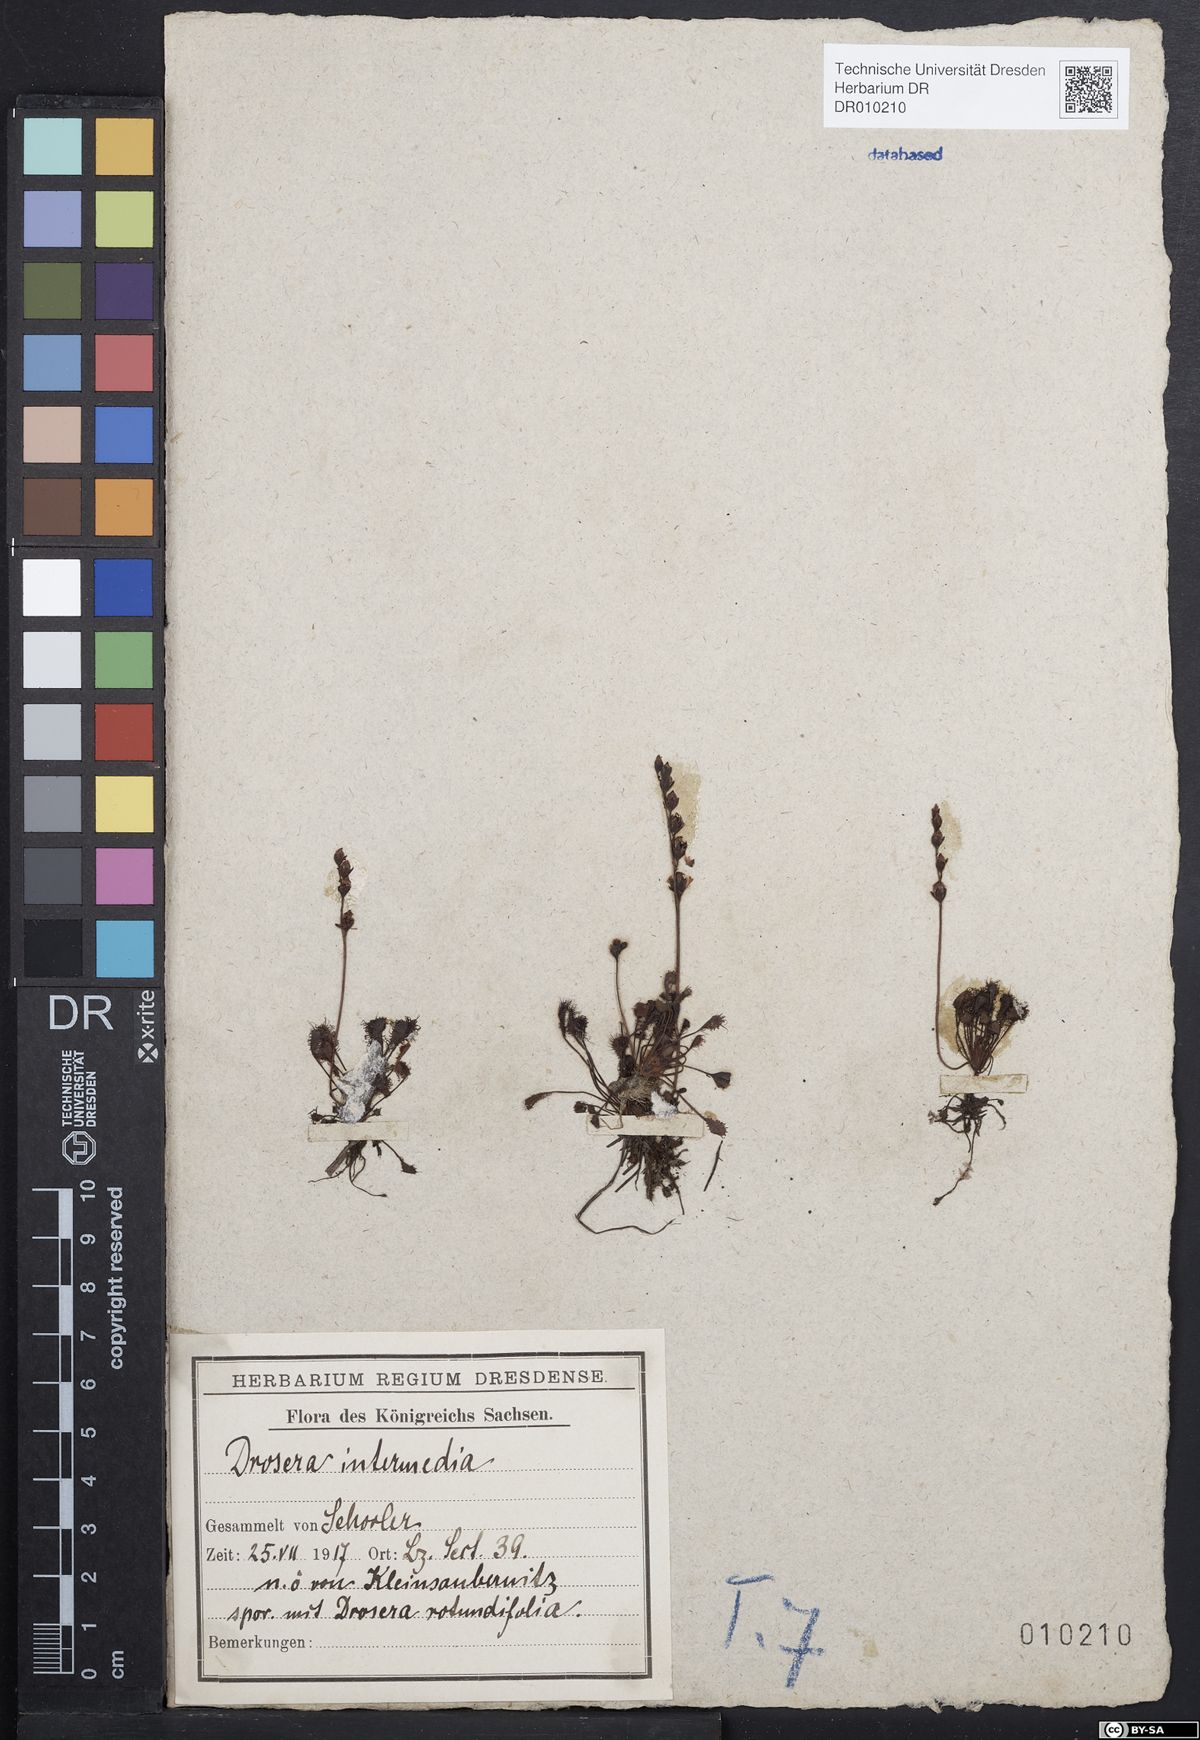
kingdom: Plantae
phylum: Tracheophyta
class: Magnoliopsida
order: Caryophyllales
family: Droseraceae
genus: Drosera
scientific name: Drosera intermedia
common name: Oblong-leaved sundew
